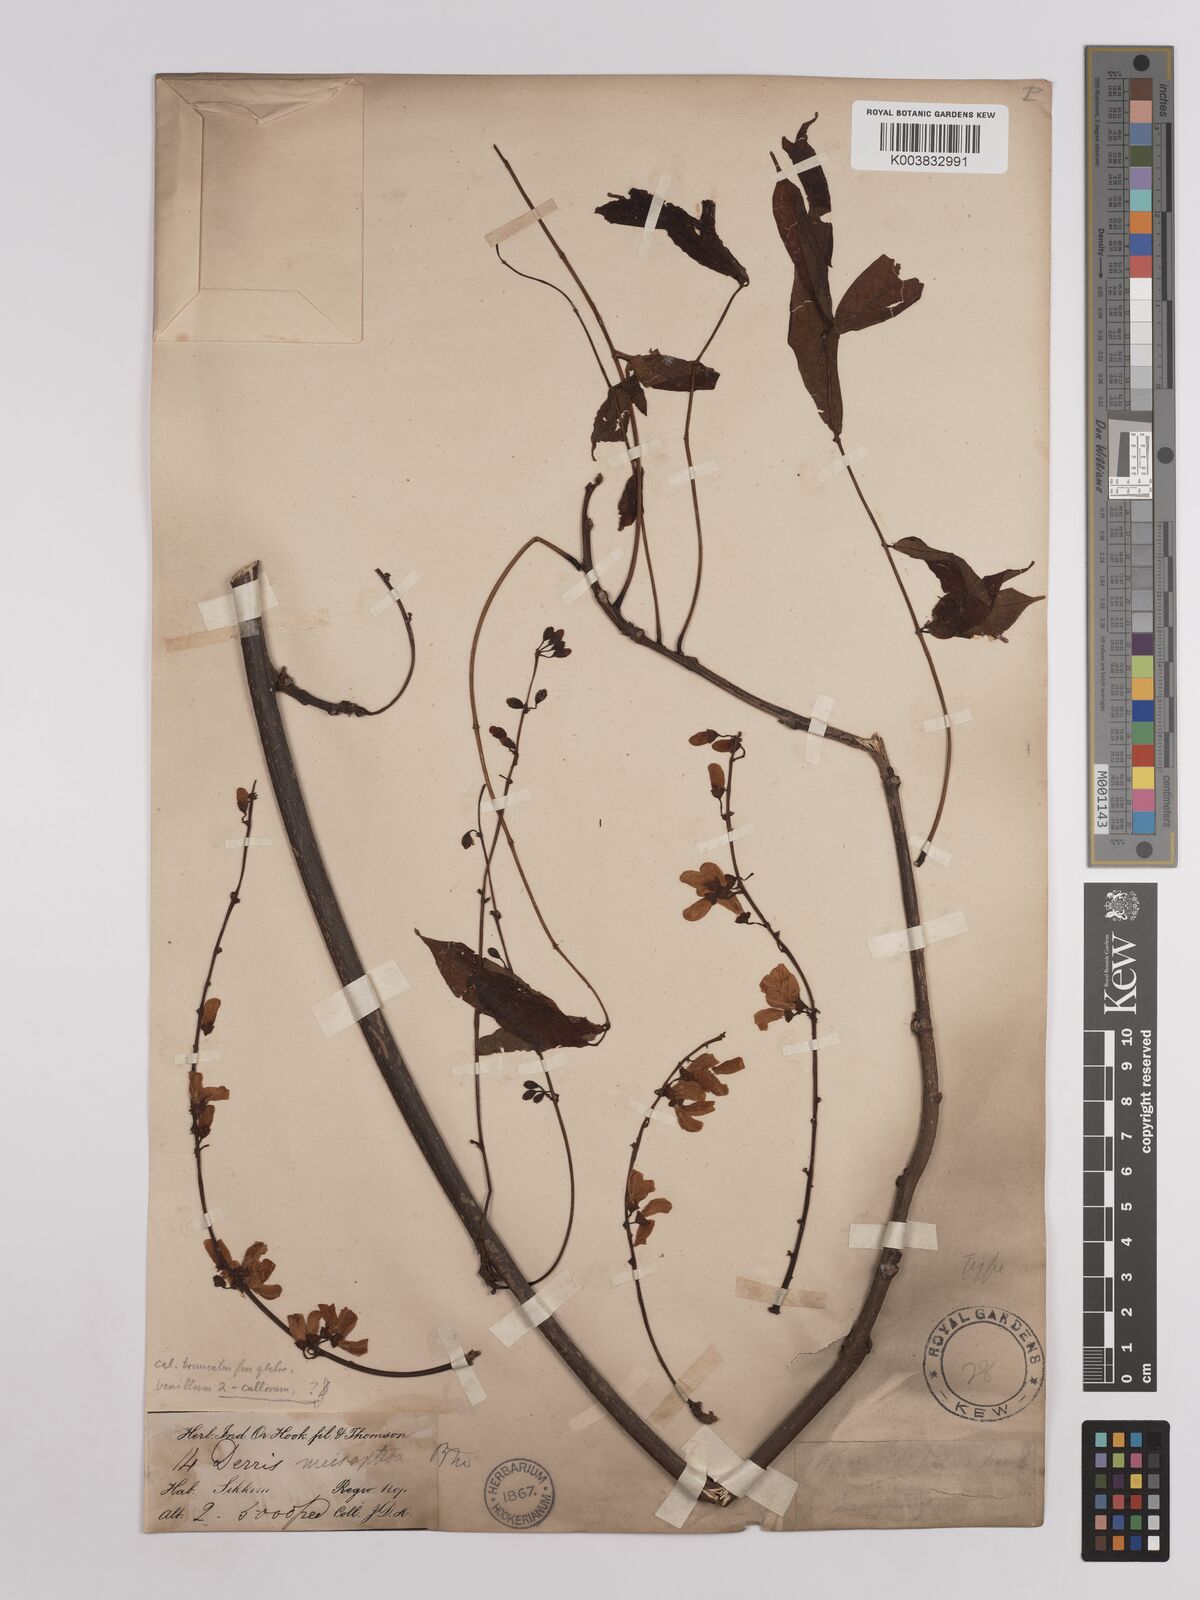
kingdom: Plantae
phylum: Tracheophyta
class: Magnoliopsida
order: Fabales
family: Fabaceae
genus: Derris
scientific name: Derris monticola
